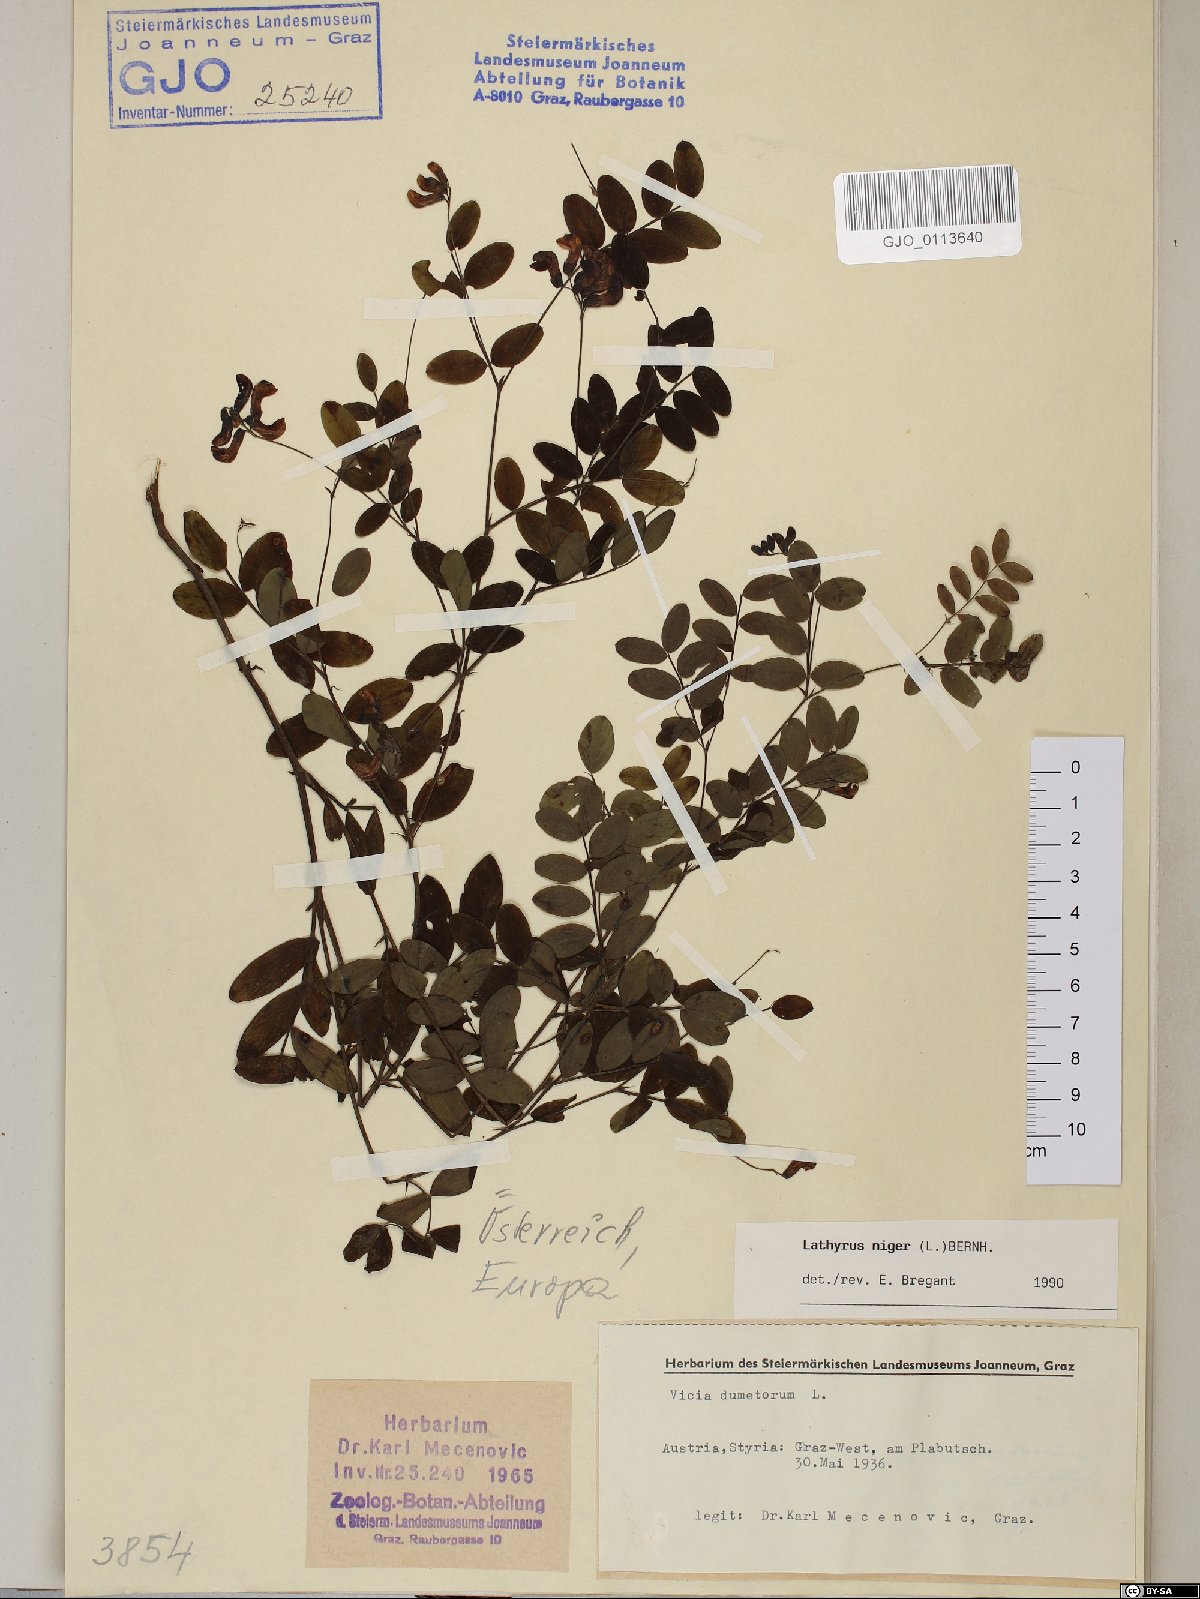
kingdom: Plantae
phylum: Tracheophyta
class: Magnoliopsida
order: Fabales
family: Fabaceae
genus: Lathyrus
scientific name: Lathyrus niger
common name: Black pea
